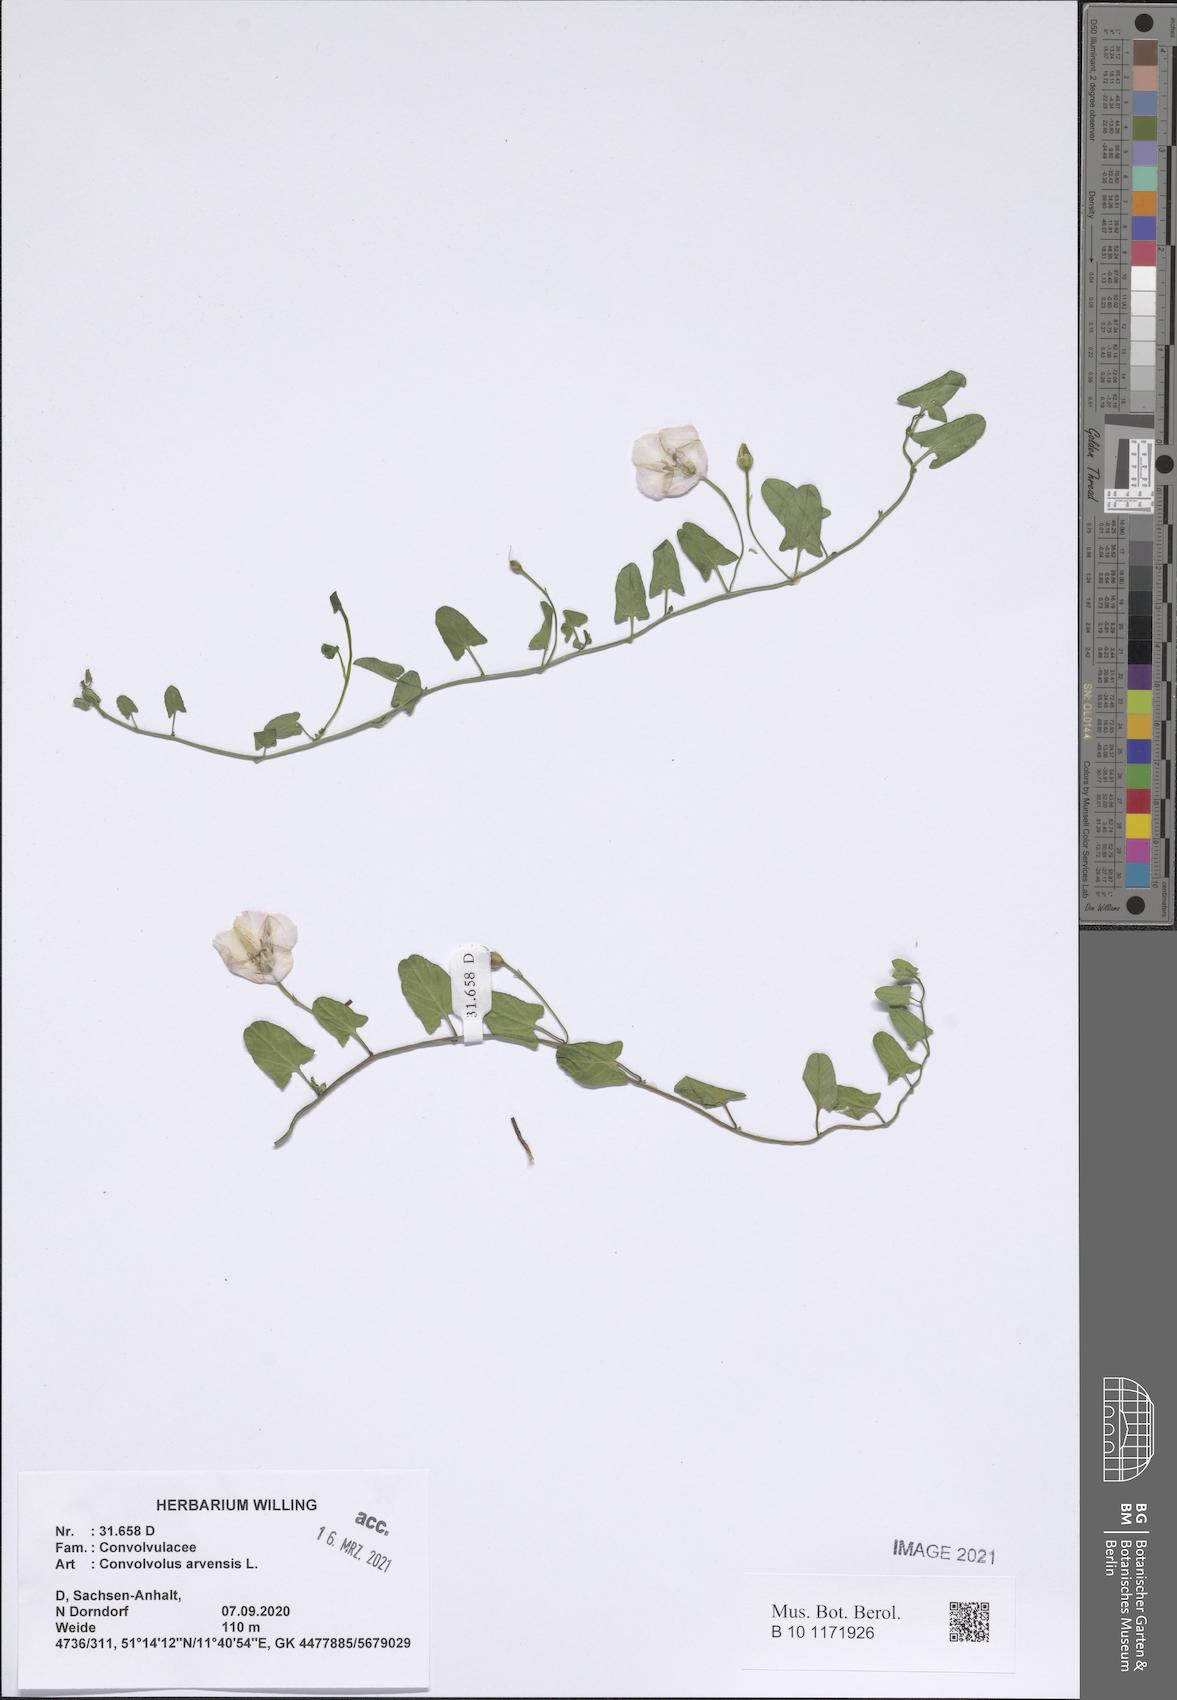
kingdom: Plantae
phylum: Tracheophyta
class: Magnoliopsida
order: Solanales
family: Convolvulaceae
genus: Convolvulus
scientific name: Convolvulus arvensis
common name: Field bindweed
